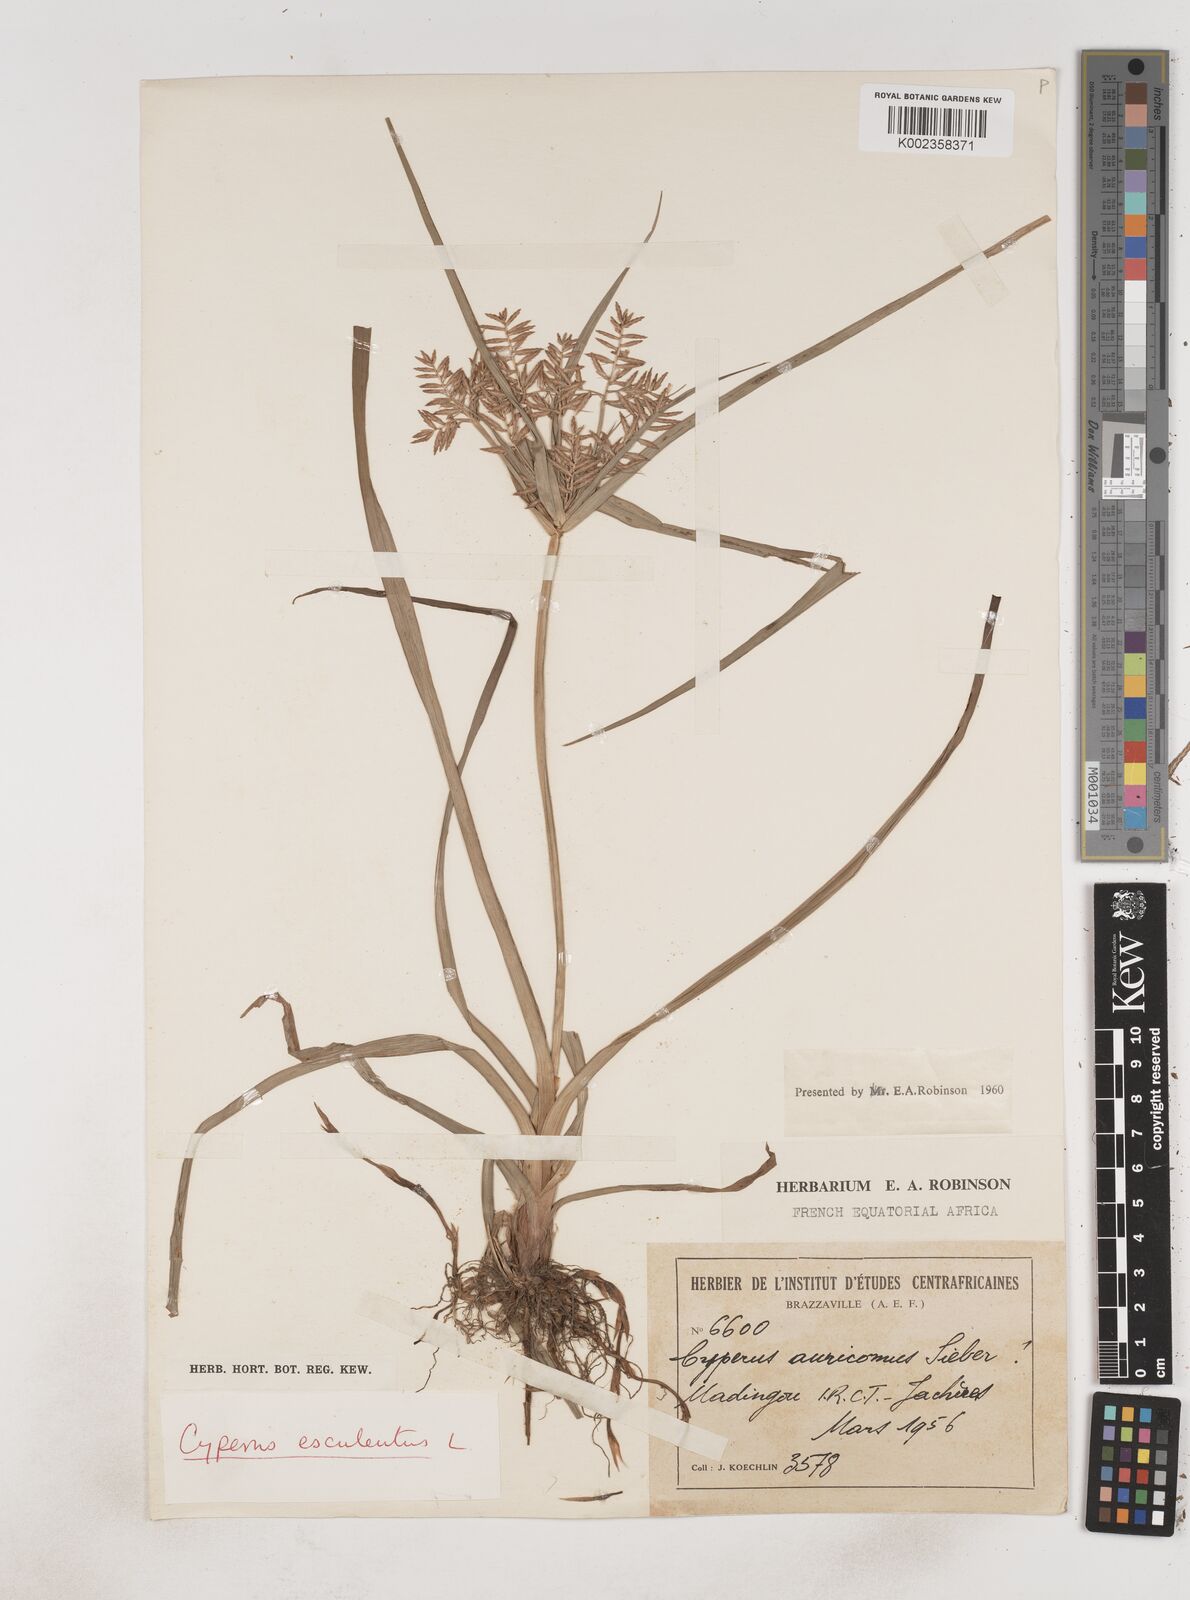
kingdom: Plantae
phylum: Tracheophyta
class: Liliopsida
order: Poales
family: Cyperaceae
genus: Cyperus
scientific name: Cyperus esculentus
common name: Yellow nutsedge
